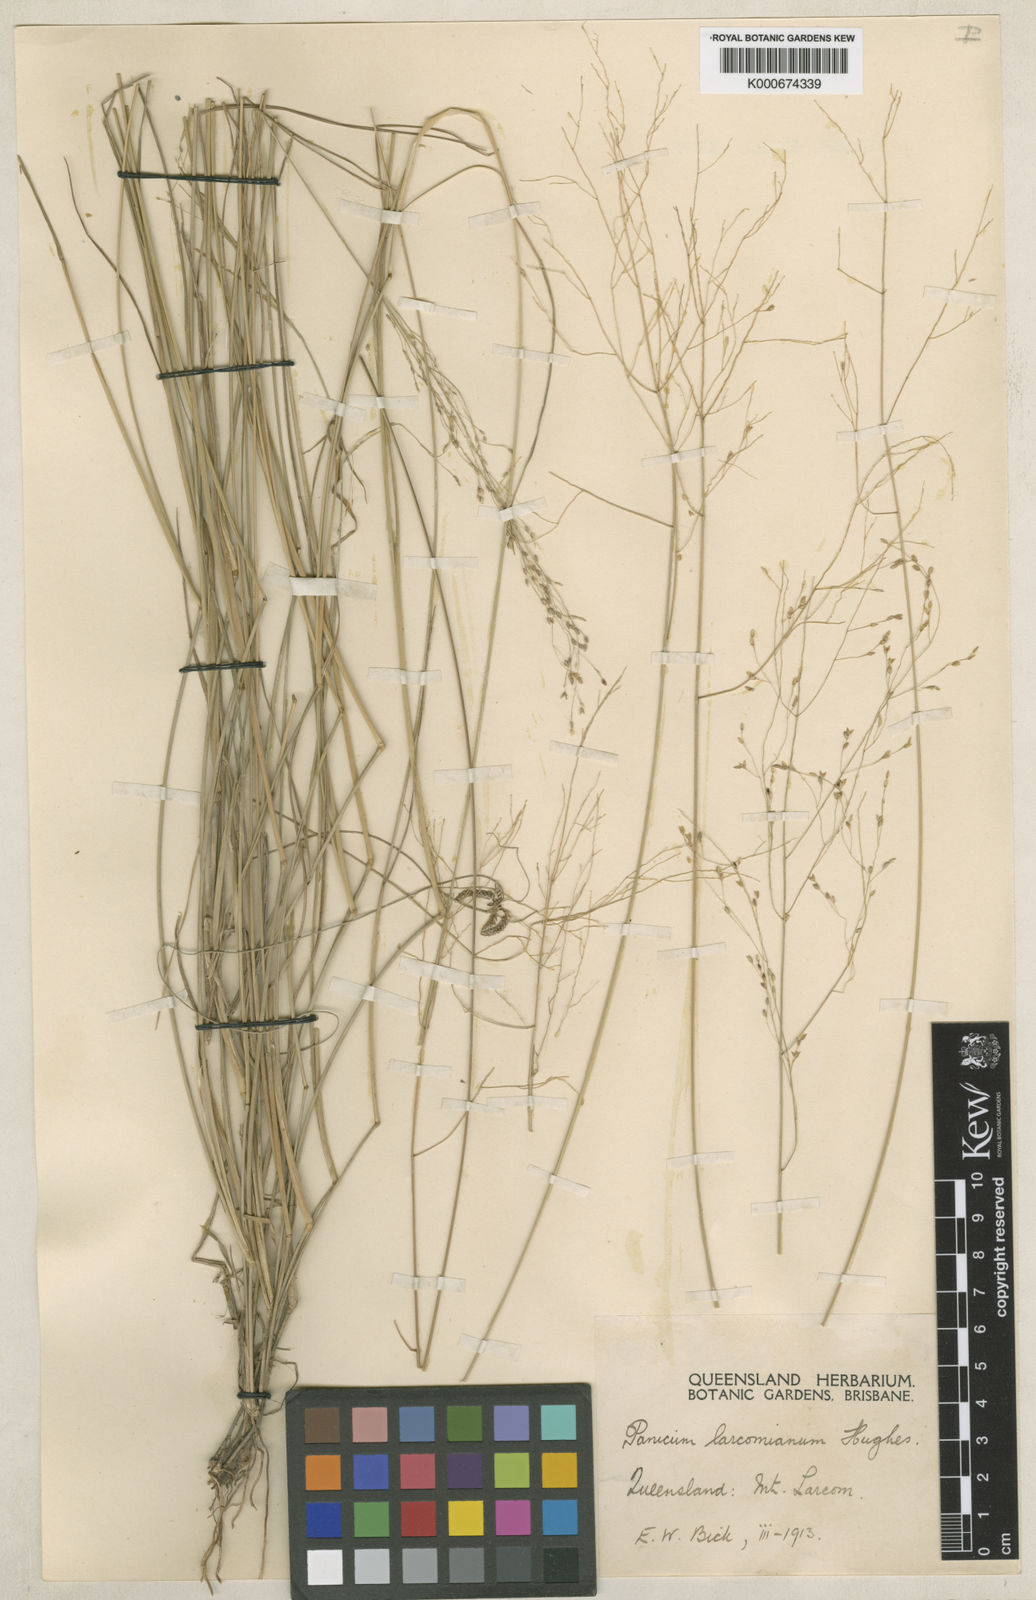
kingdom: Plantae
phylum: Tracheophyta
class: Liliopsida
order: Poales
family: Poaceae
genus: Panicum
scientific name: Panicum larcomianum
